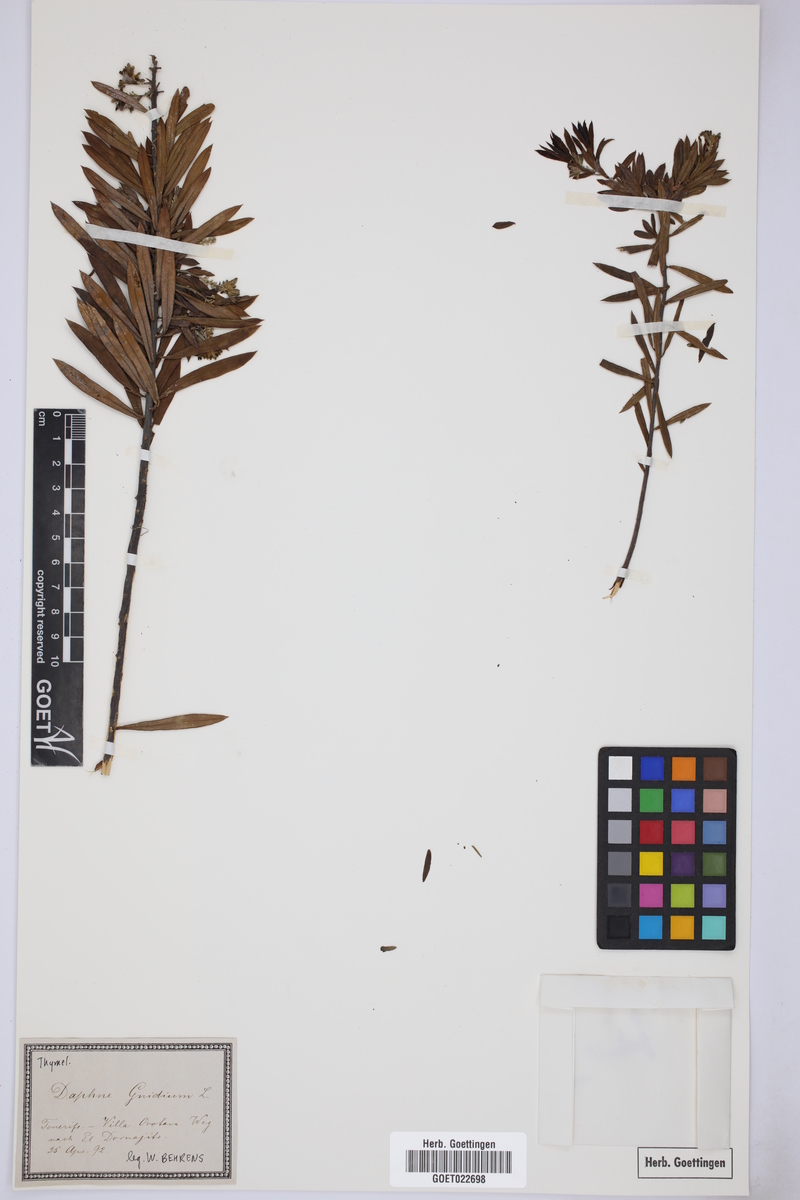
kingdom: Plantae
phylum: Tracheophyta
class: Magnoliopsida
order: Malvales
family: Thymelaeaceae
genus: Daphne
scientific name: Daphne gnidium
